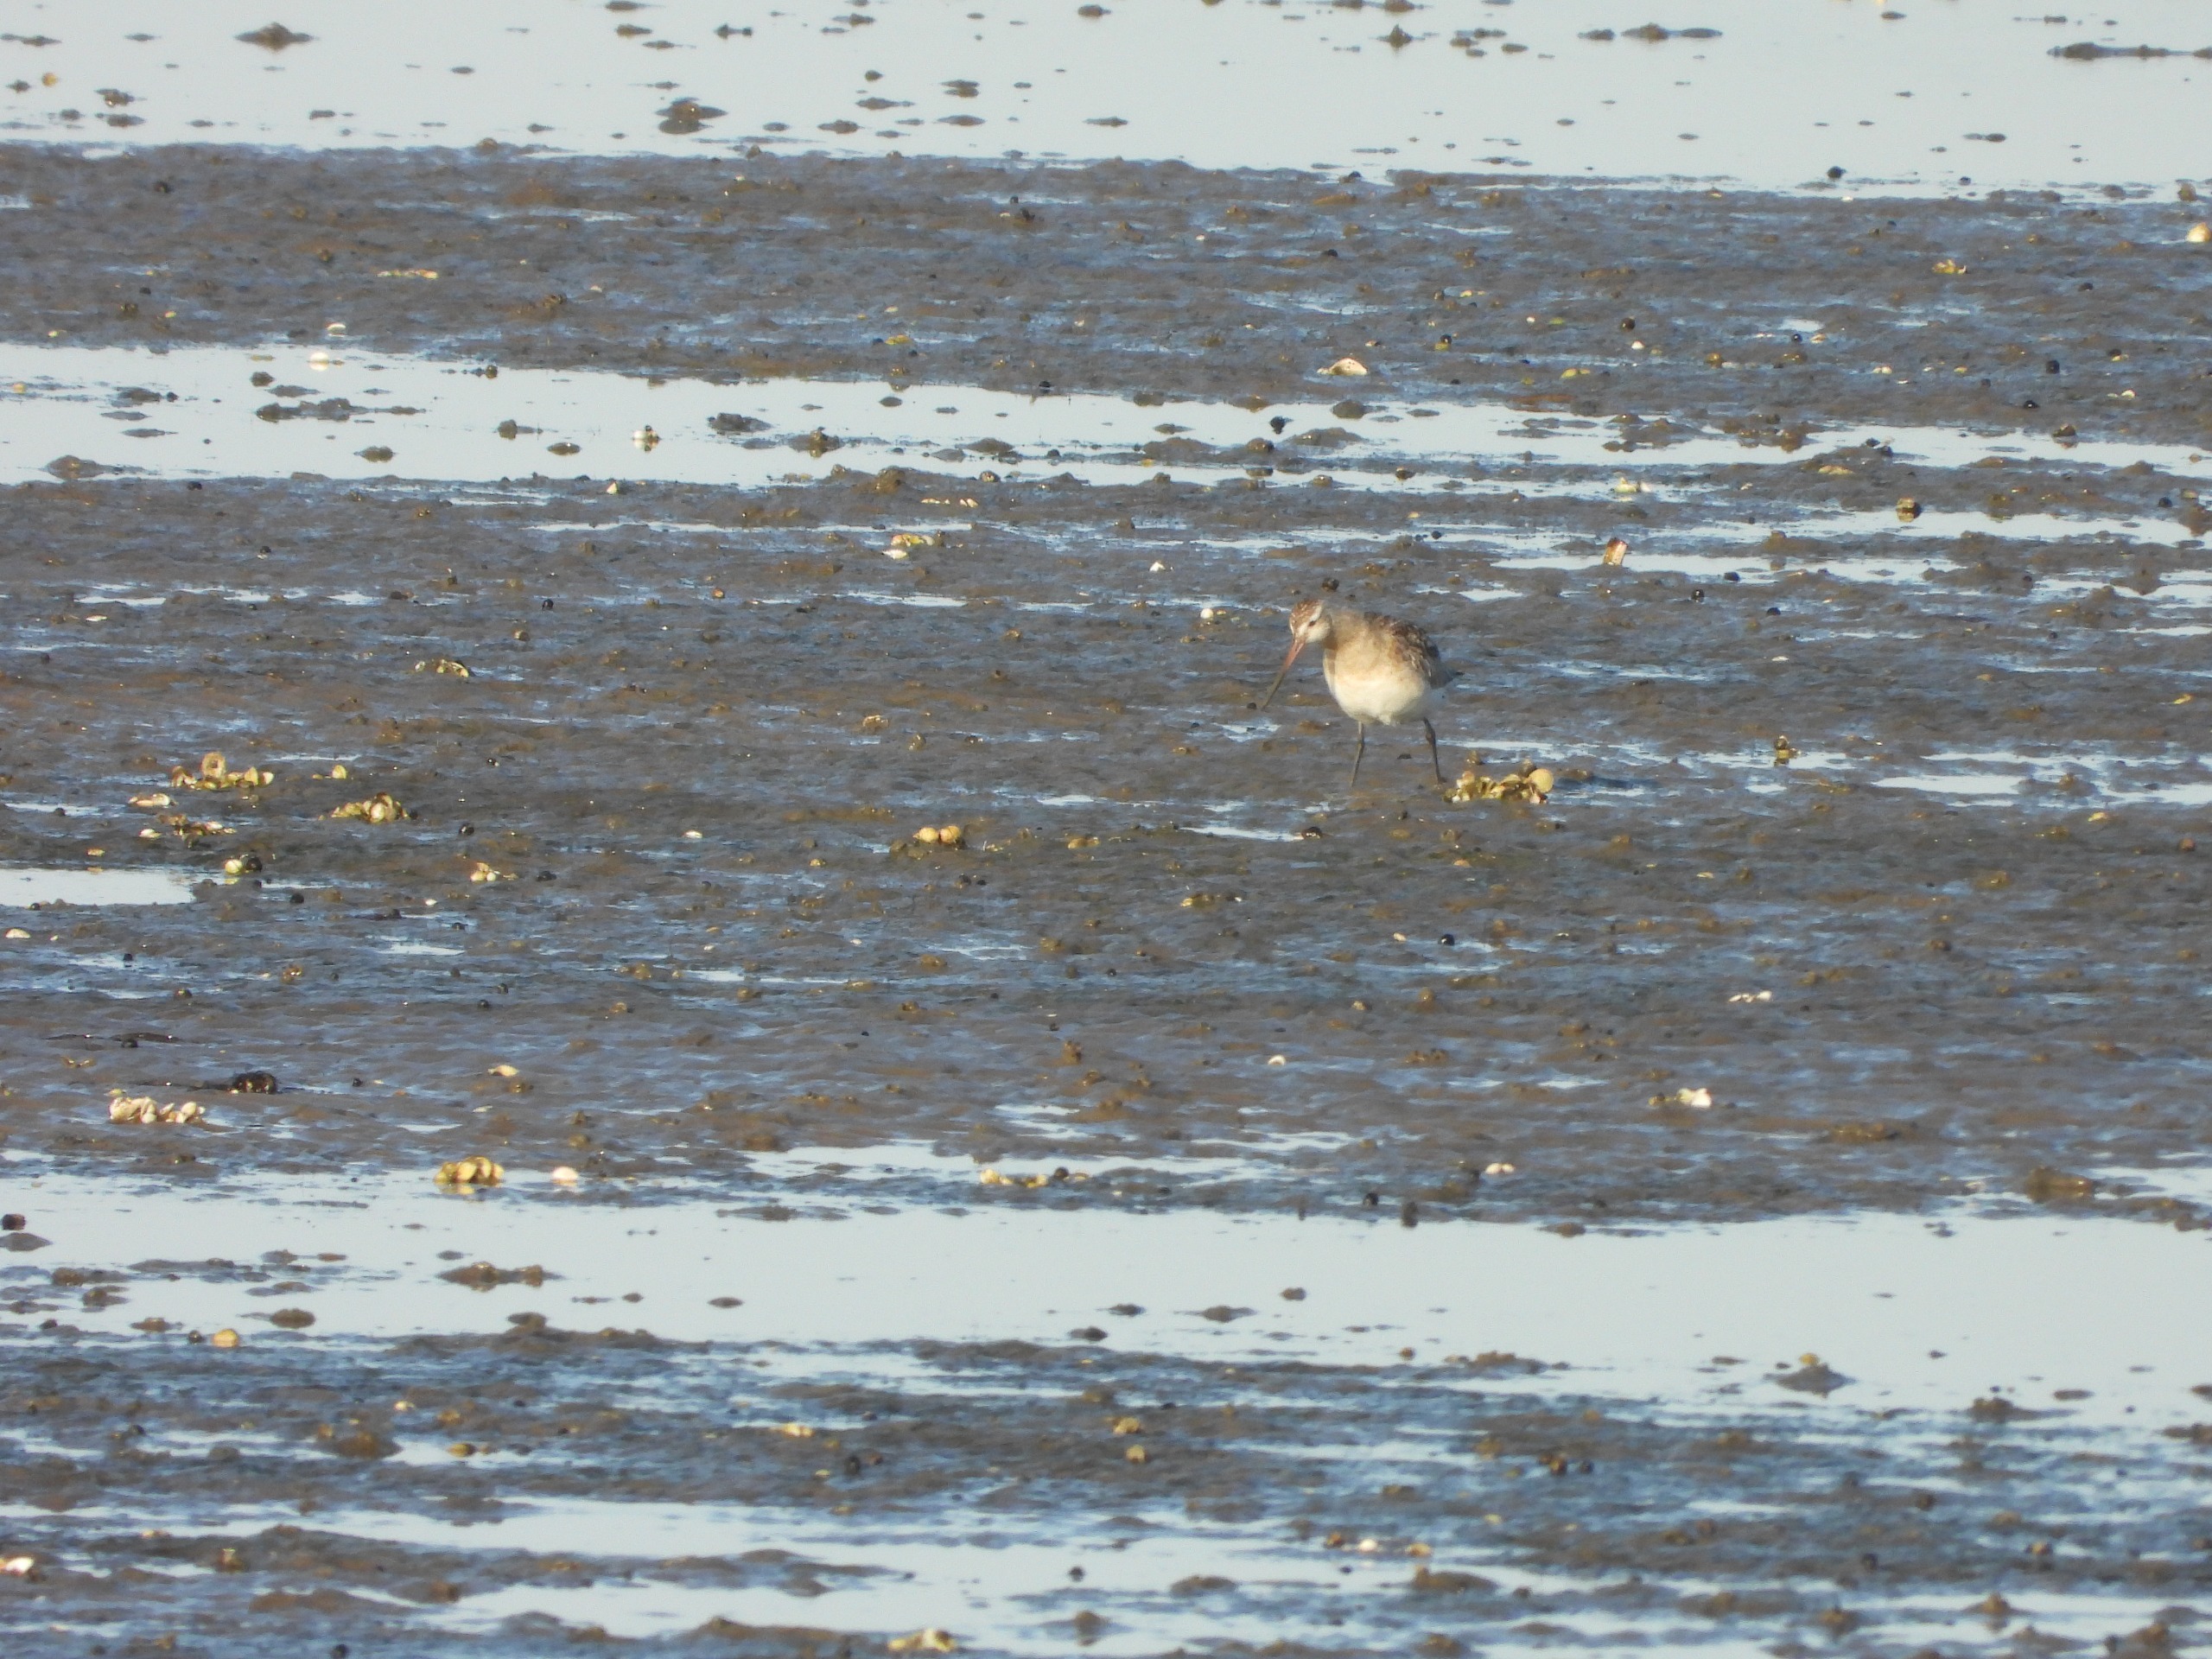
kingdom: Animalia
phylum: Chordata
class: Aves
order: Charadriiformes
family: Scolopacidae
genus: Limosa
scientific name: Limosa lapponica
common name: Lille kobbersneppe
